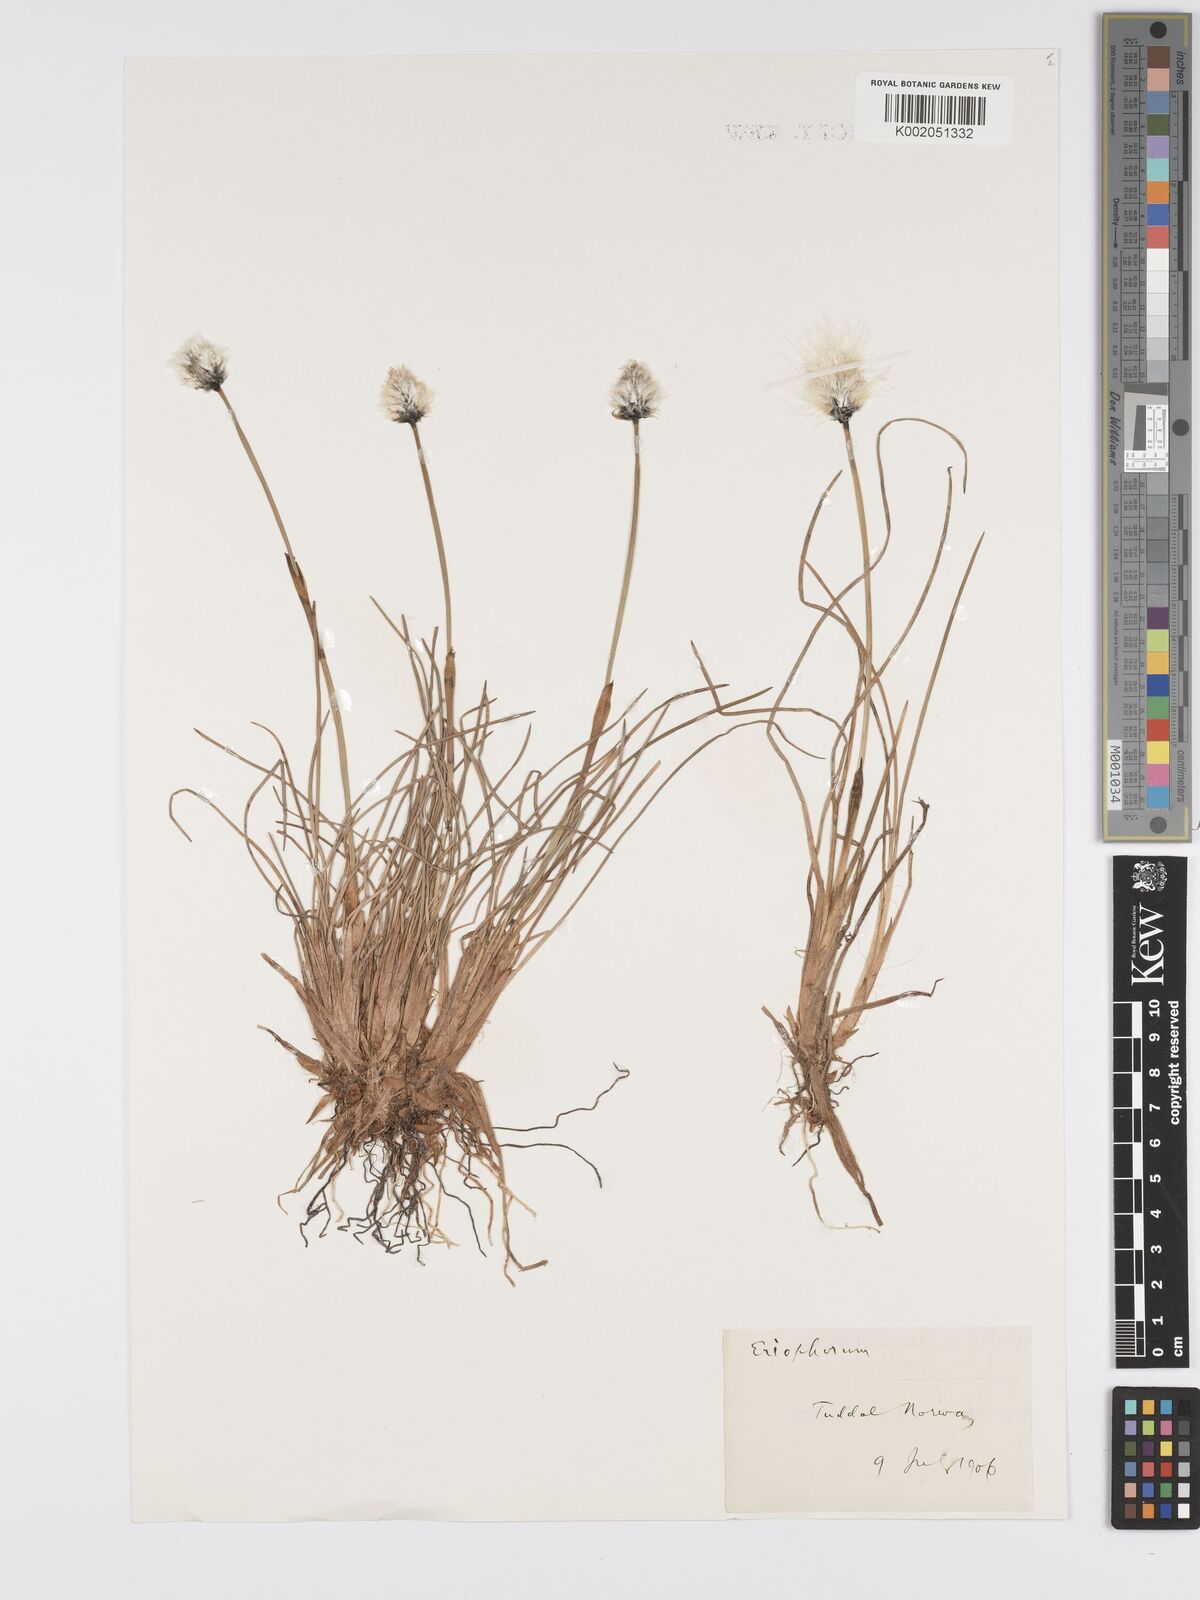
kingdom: Plantae
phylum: Tracheophyta
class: Liliopsida
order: Poales
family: Cyperaceae
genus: Eriophorum
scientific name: Eriophorum
